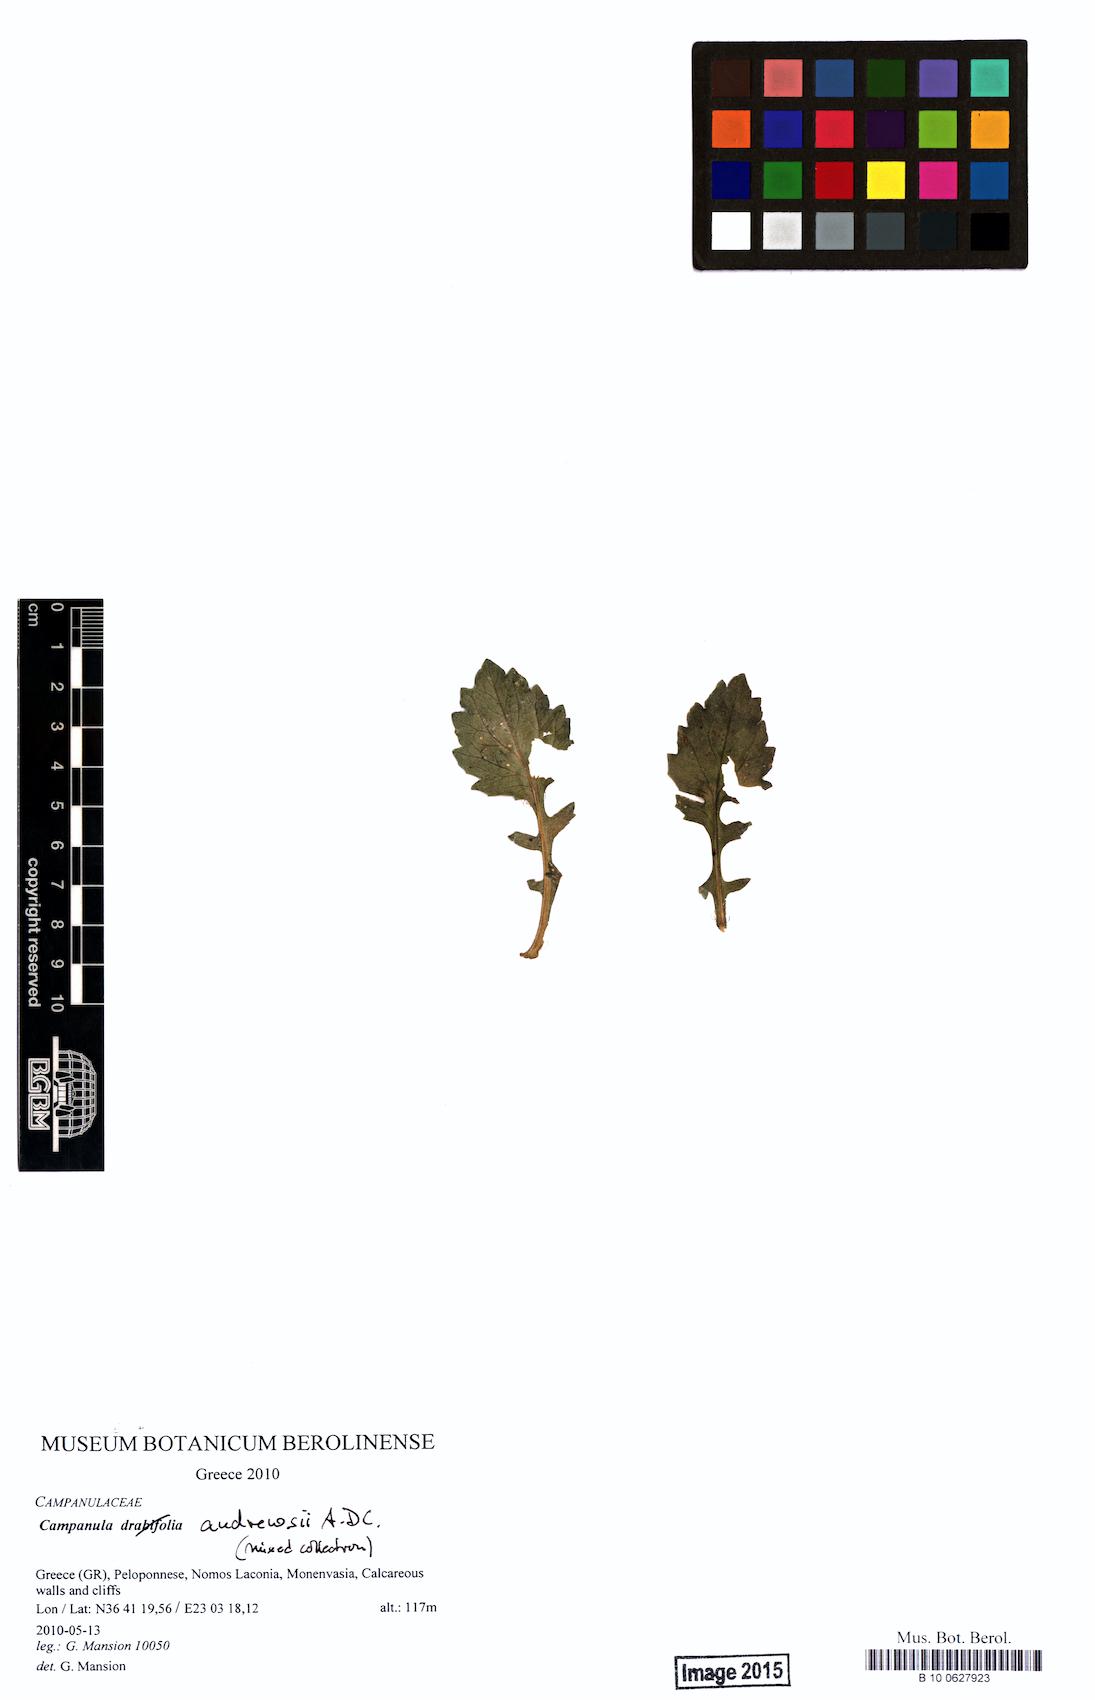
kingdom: Plantae
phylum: Tracheophyta
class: Magnoliopsida
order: Asterales
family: Campanulaceae
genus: Campanula
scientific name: Campanula andrewsii
